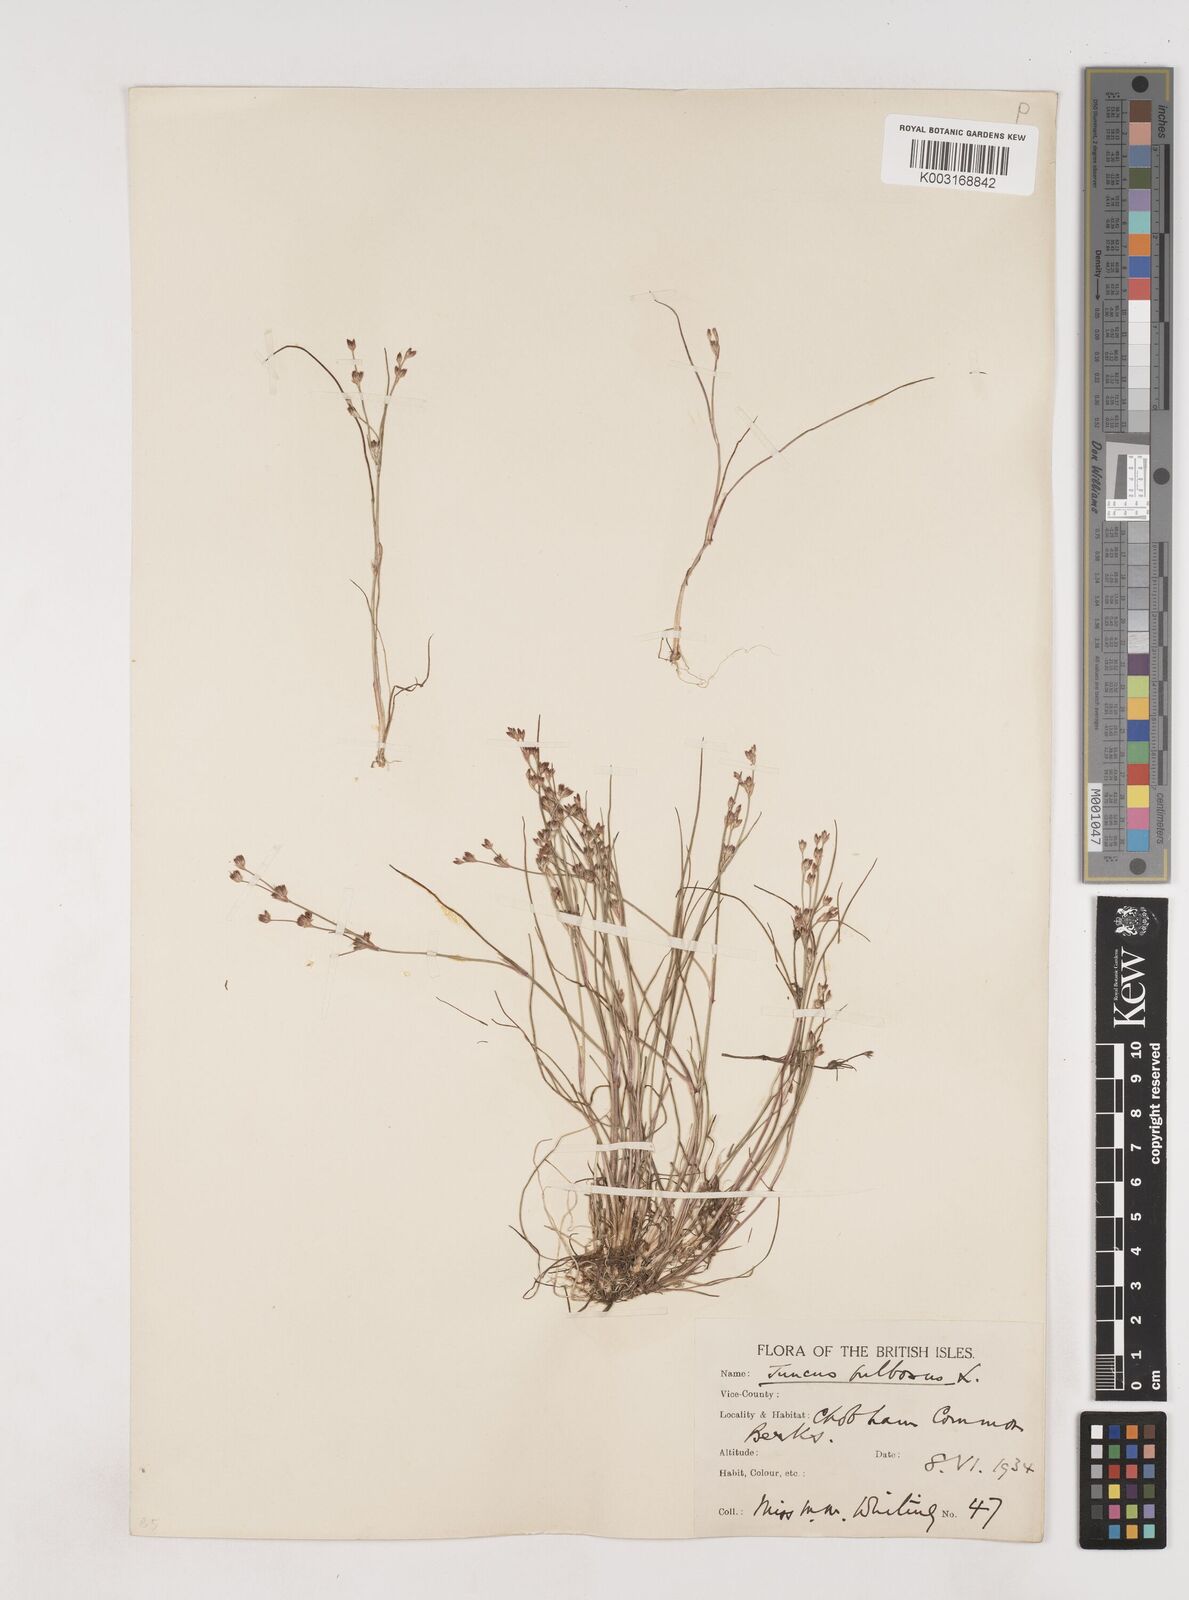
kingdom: Plantae
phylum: Tracheophyta
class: Liliopsida
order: Poales
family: Juncaceae
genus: Juncus
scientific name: Juncus bulbosus
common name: Bulbous rush
